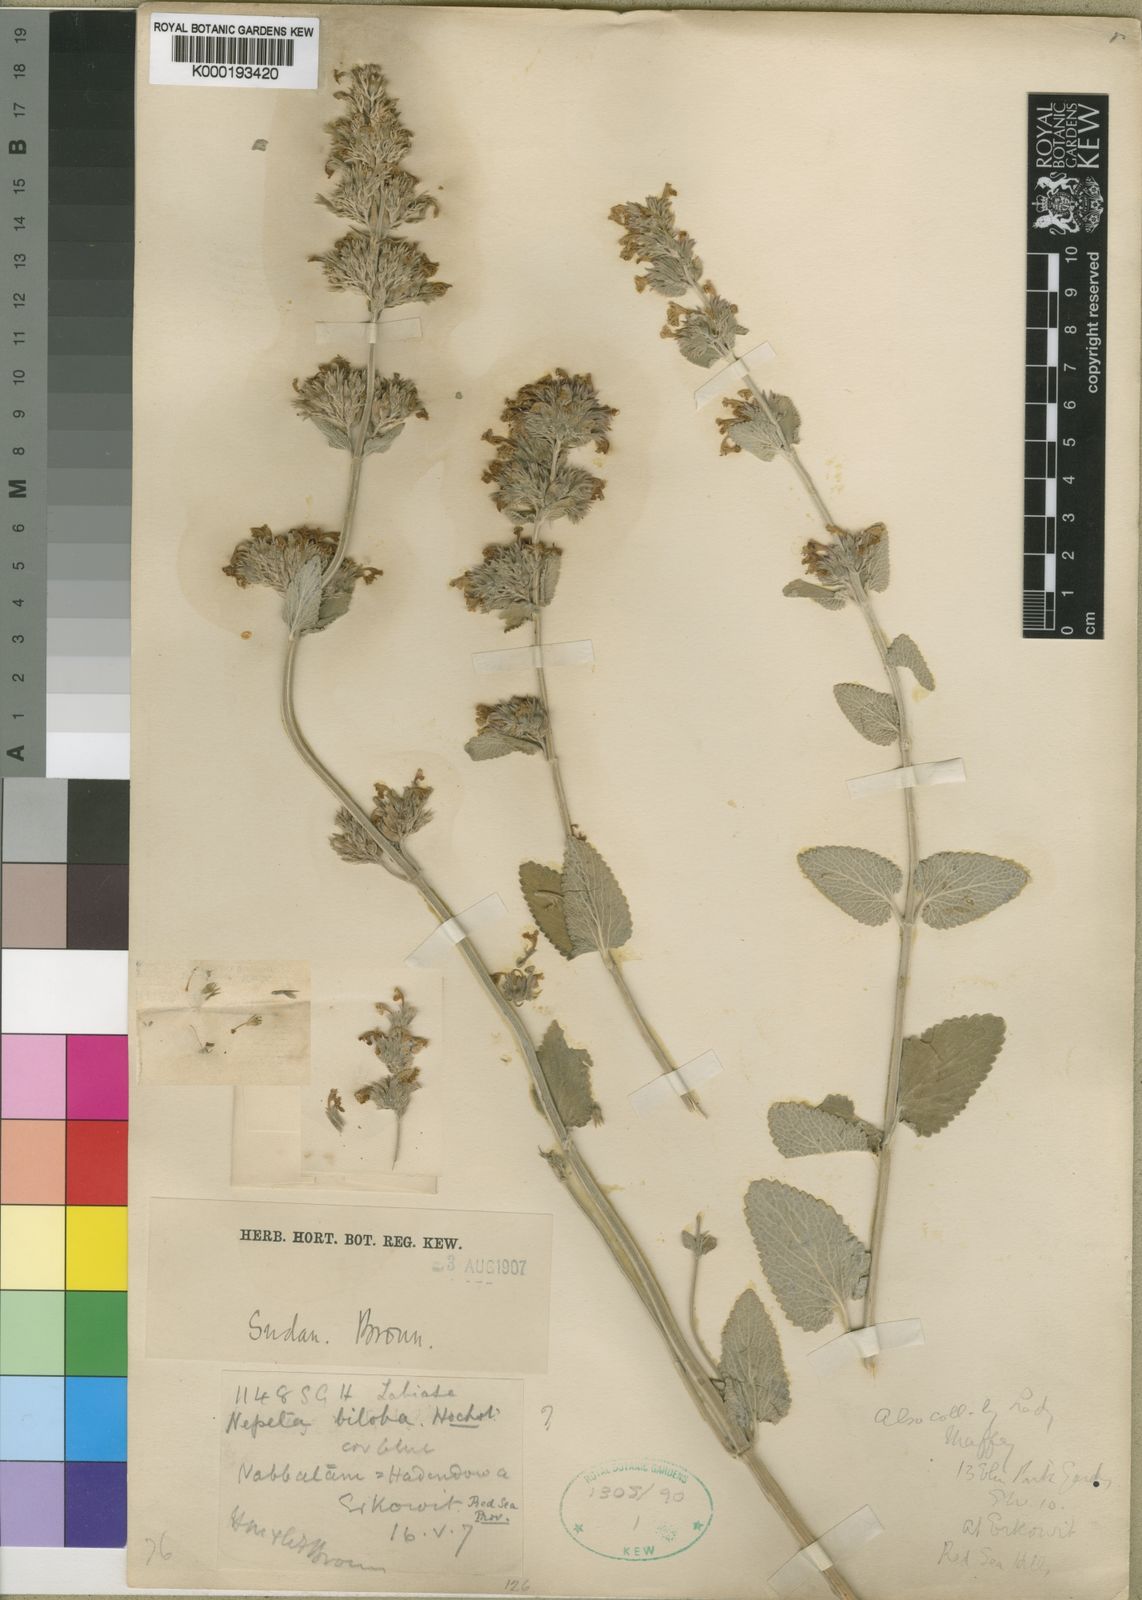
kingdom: Plantae
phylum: Tracheophyta
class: Magnoliopsida
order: Lamiales
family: Lamiaceae
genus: Nepeta
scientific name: Nepeta sudanica
